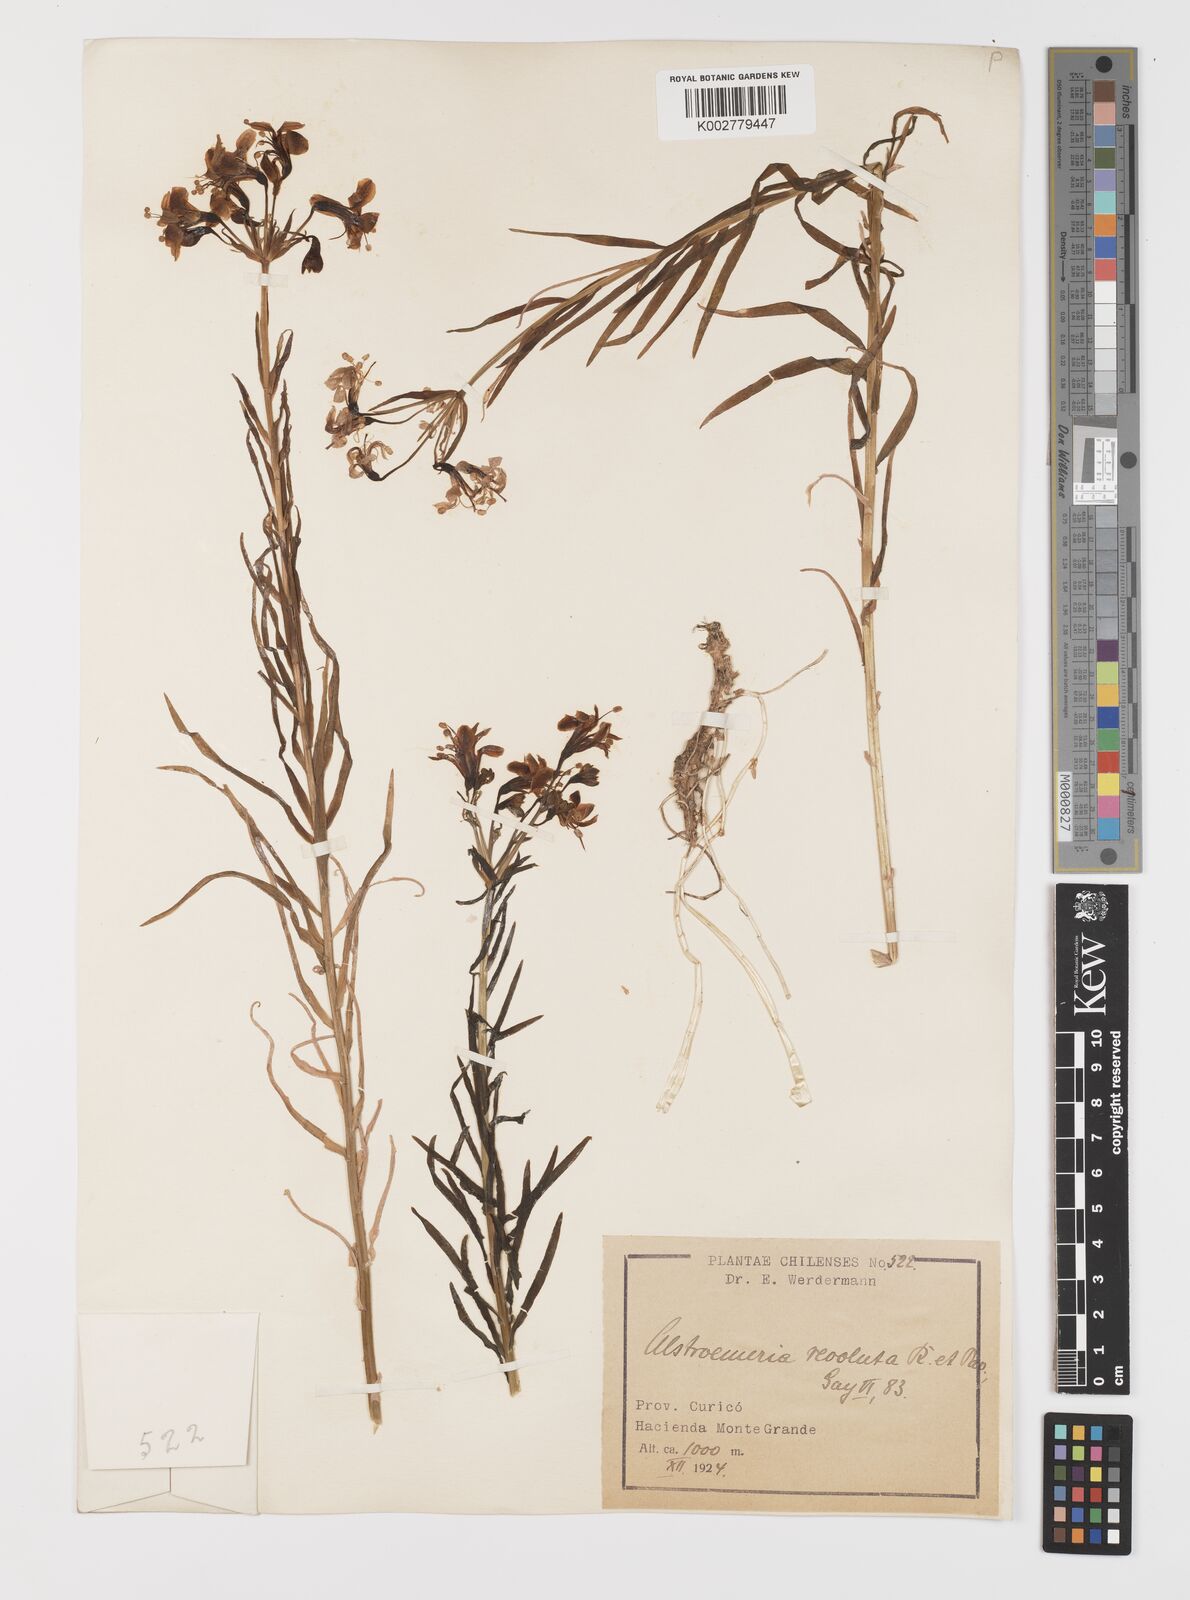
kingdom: Plantae
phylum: Tracheophyta
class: Liliopsida
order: Liliales
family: Alstroemeriaceae
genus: Alstroemeria
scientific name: Alstroemeria revoluta
